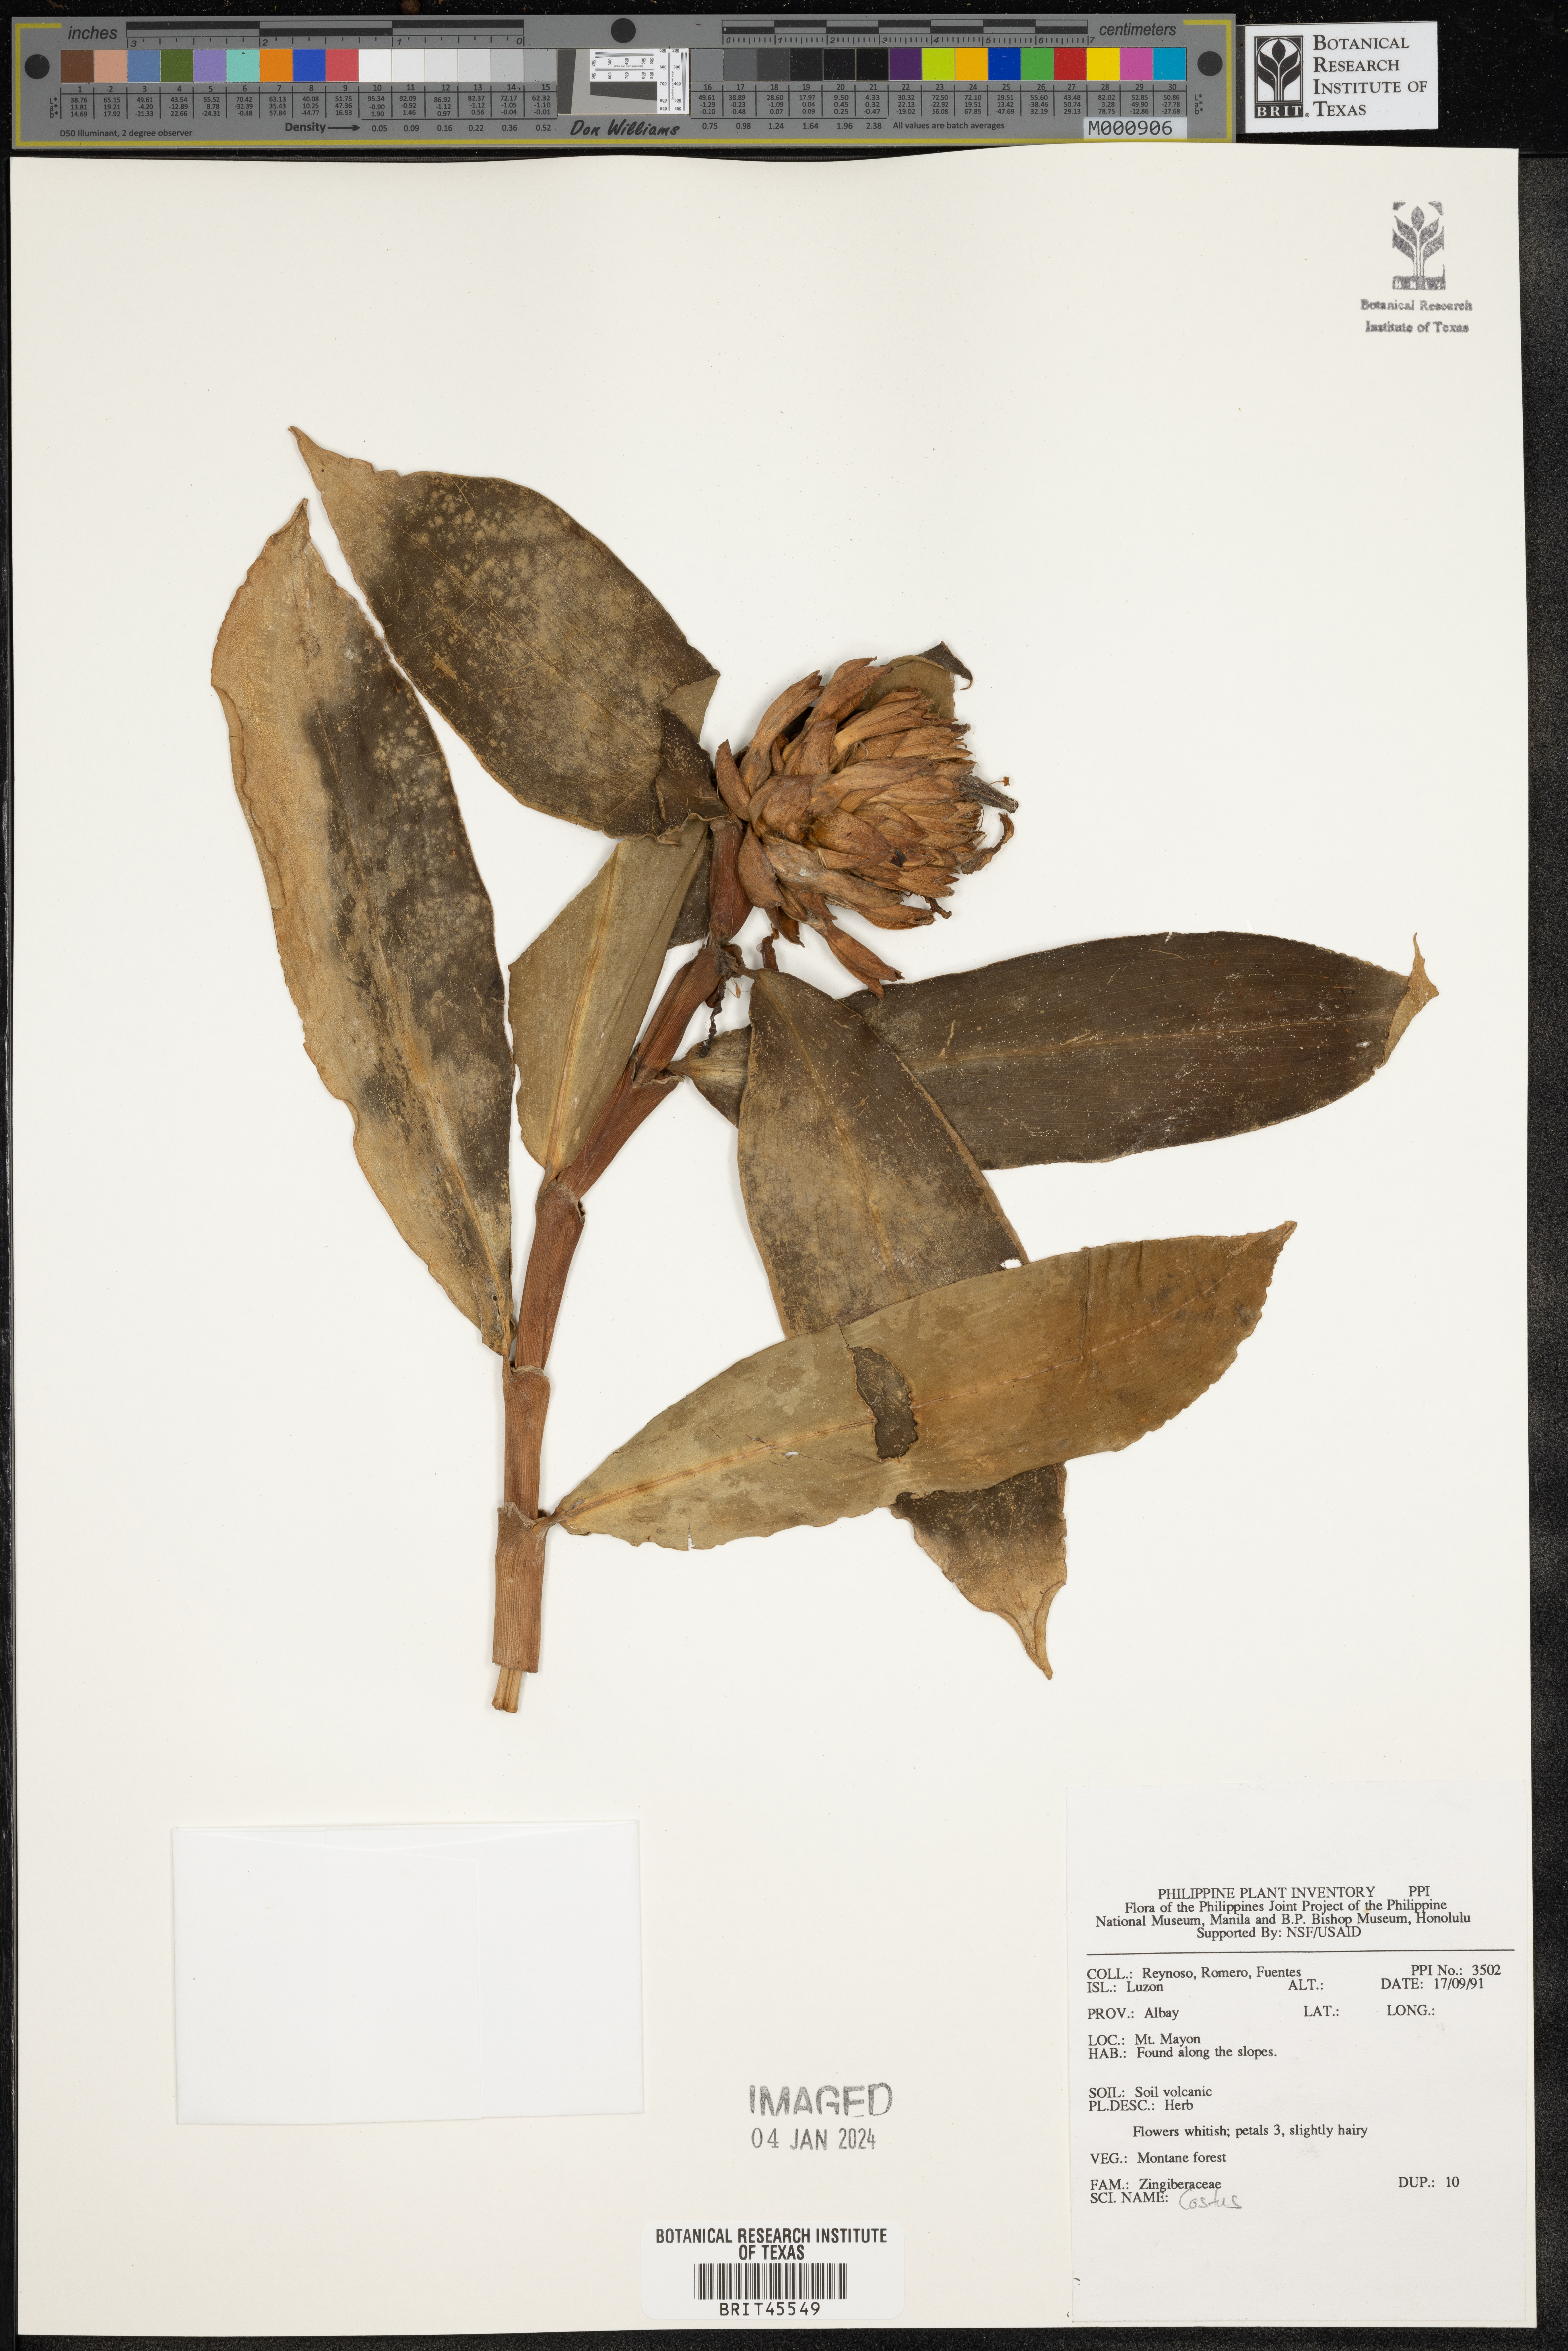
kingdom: Plantae
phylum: Tracheophyta
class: Liliopsida
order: Zingiberales
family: Costaceae
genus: Costus
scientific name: Costus
